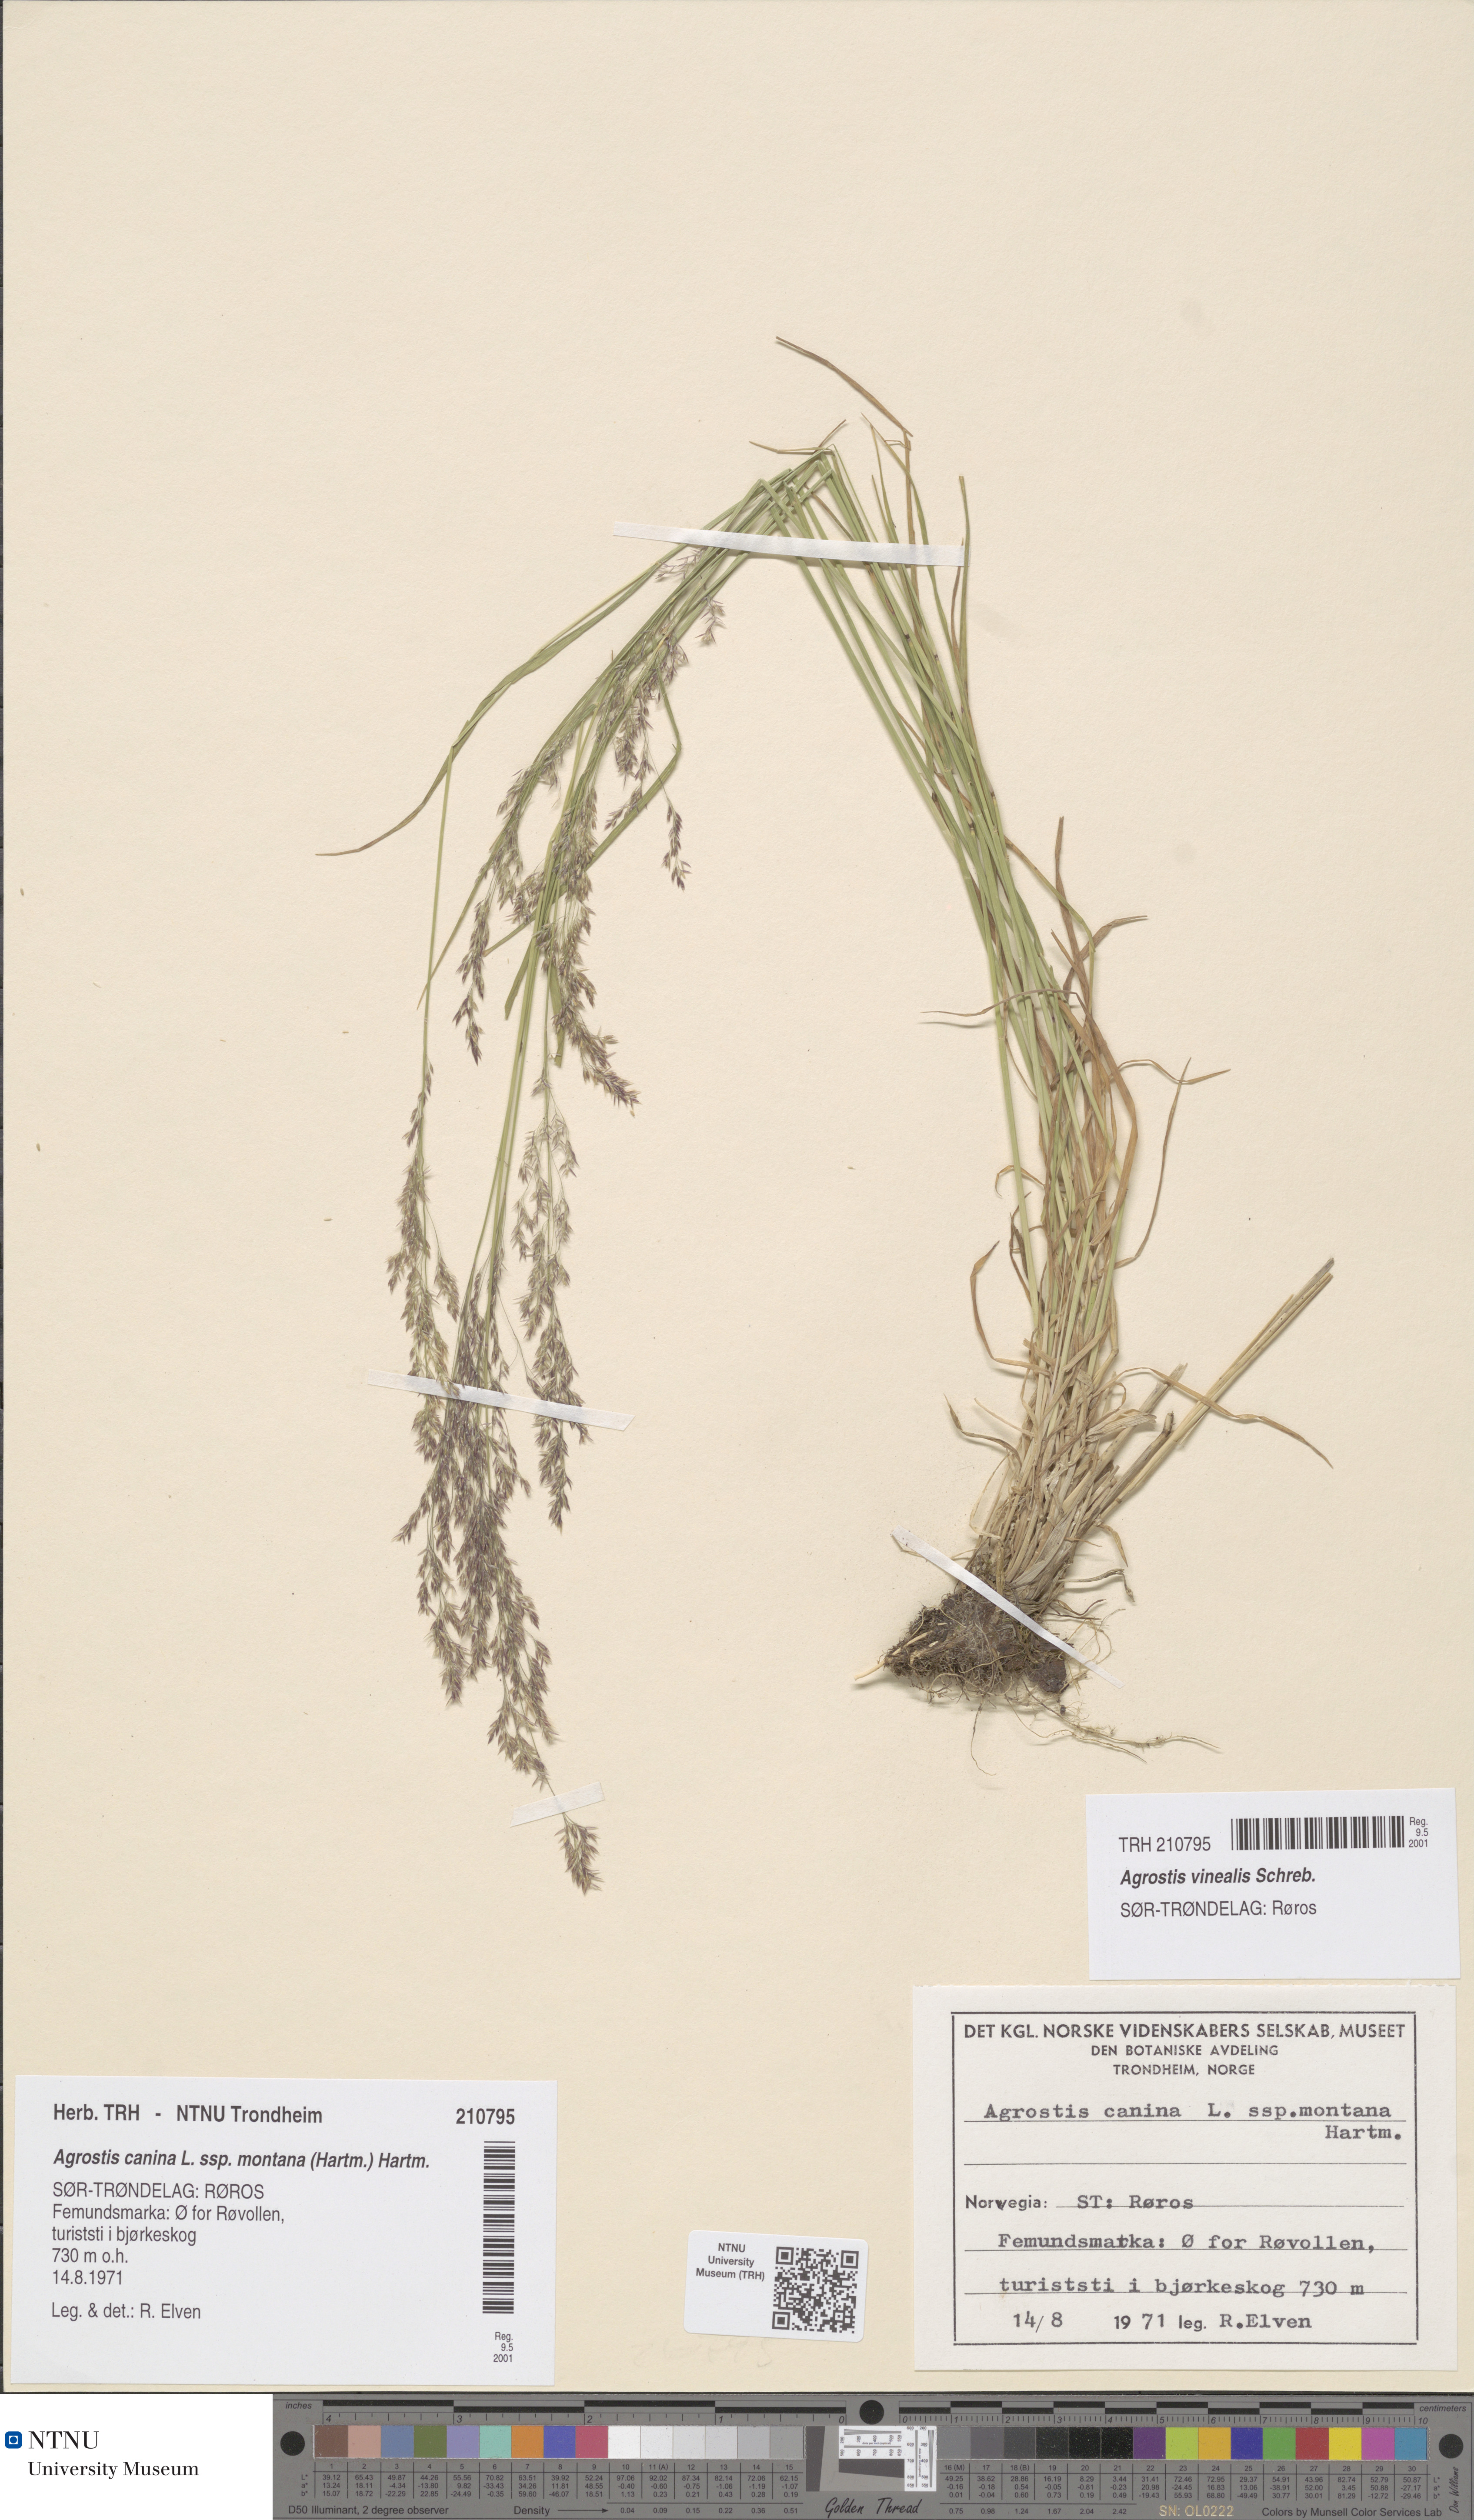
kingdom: Plantae
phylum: Tracheophyta
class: Liliopsida
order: Poales
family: Poaceae
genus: Agrostis
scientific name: Agrostis vinealis
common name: Brown bent
